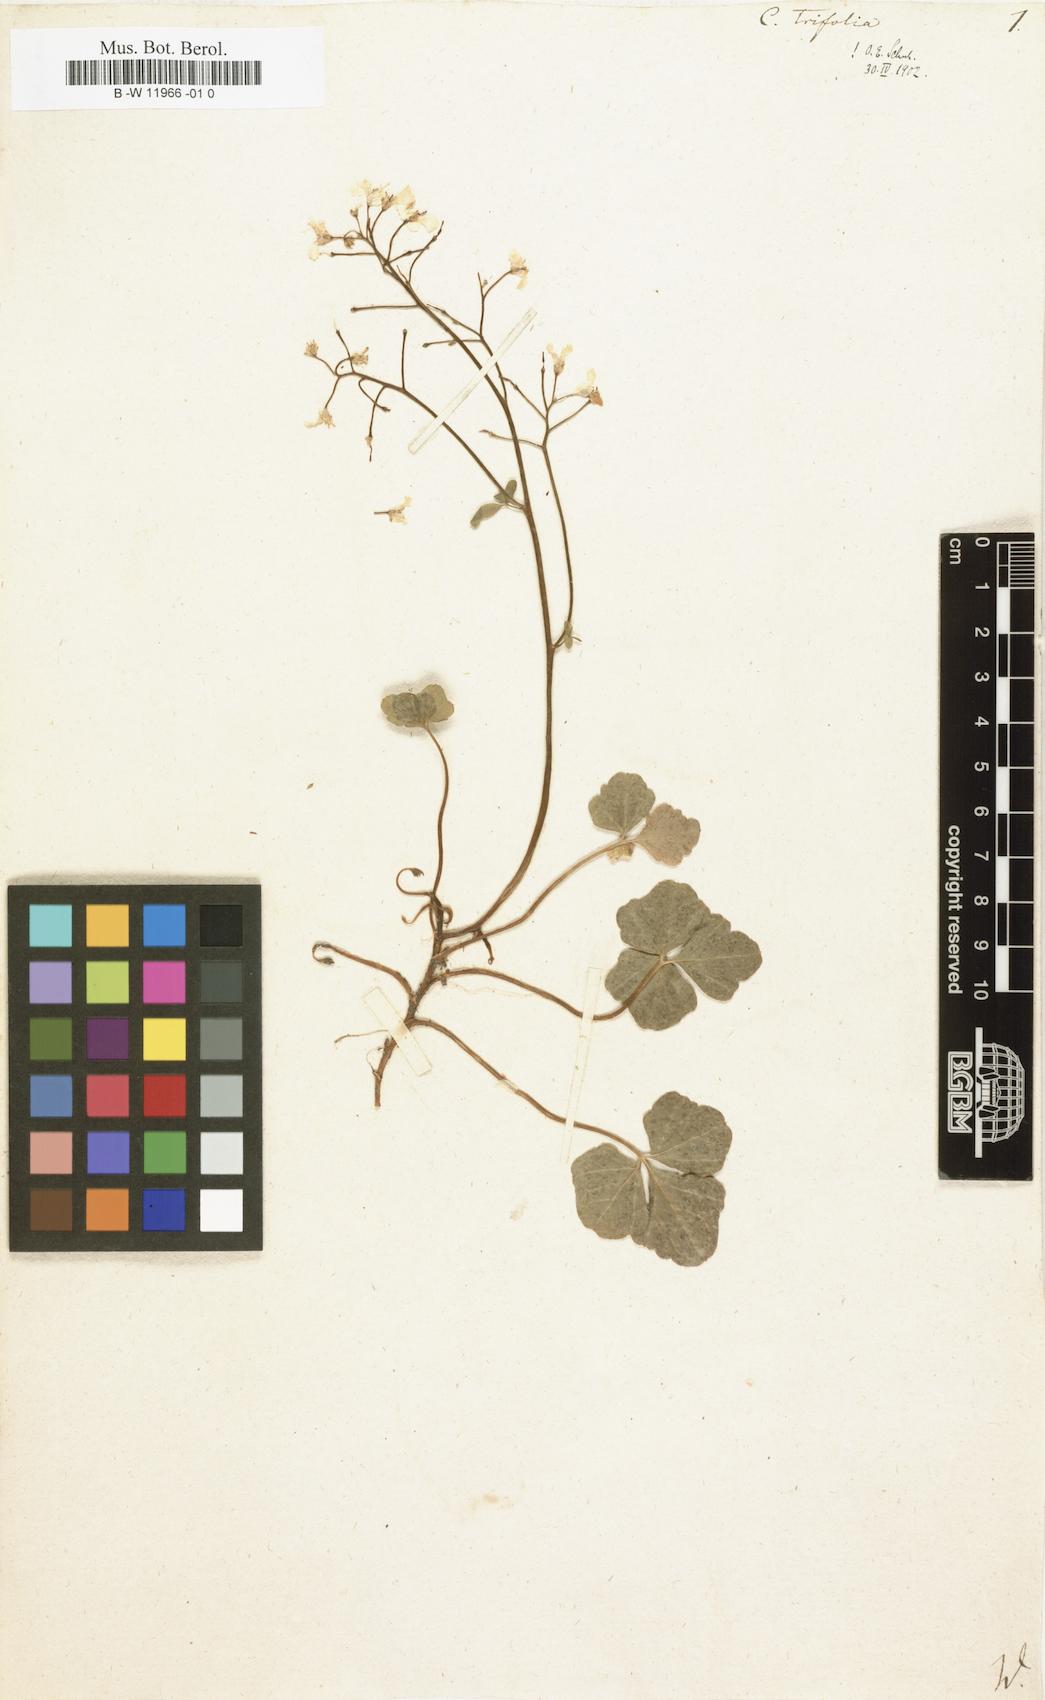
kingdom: Plantae
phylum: Tracheophyta
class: Magnoliopsida
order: Brassicales
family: Brassicaceae
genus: Cardamine
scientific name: Cardamine trifolia
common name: Trefoil cress
